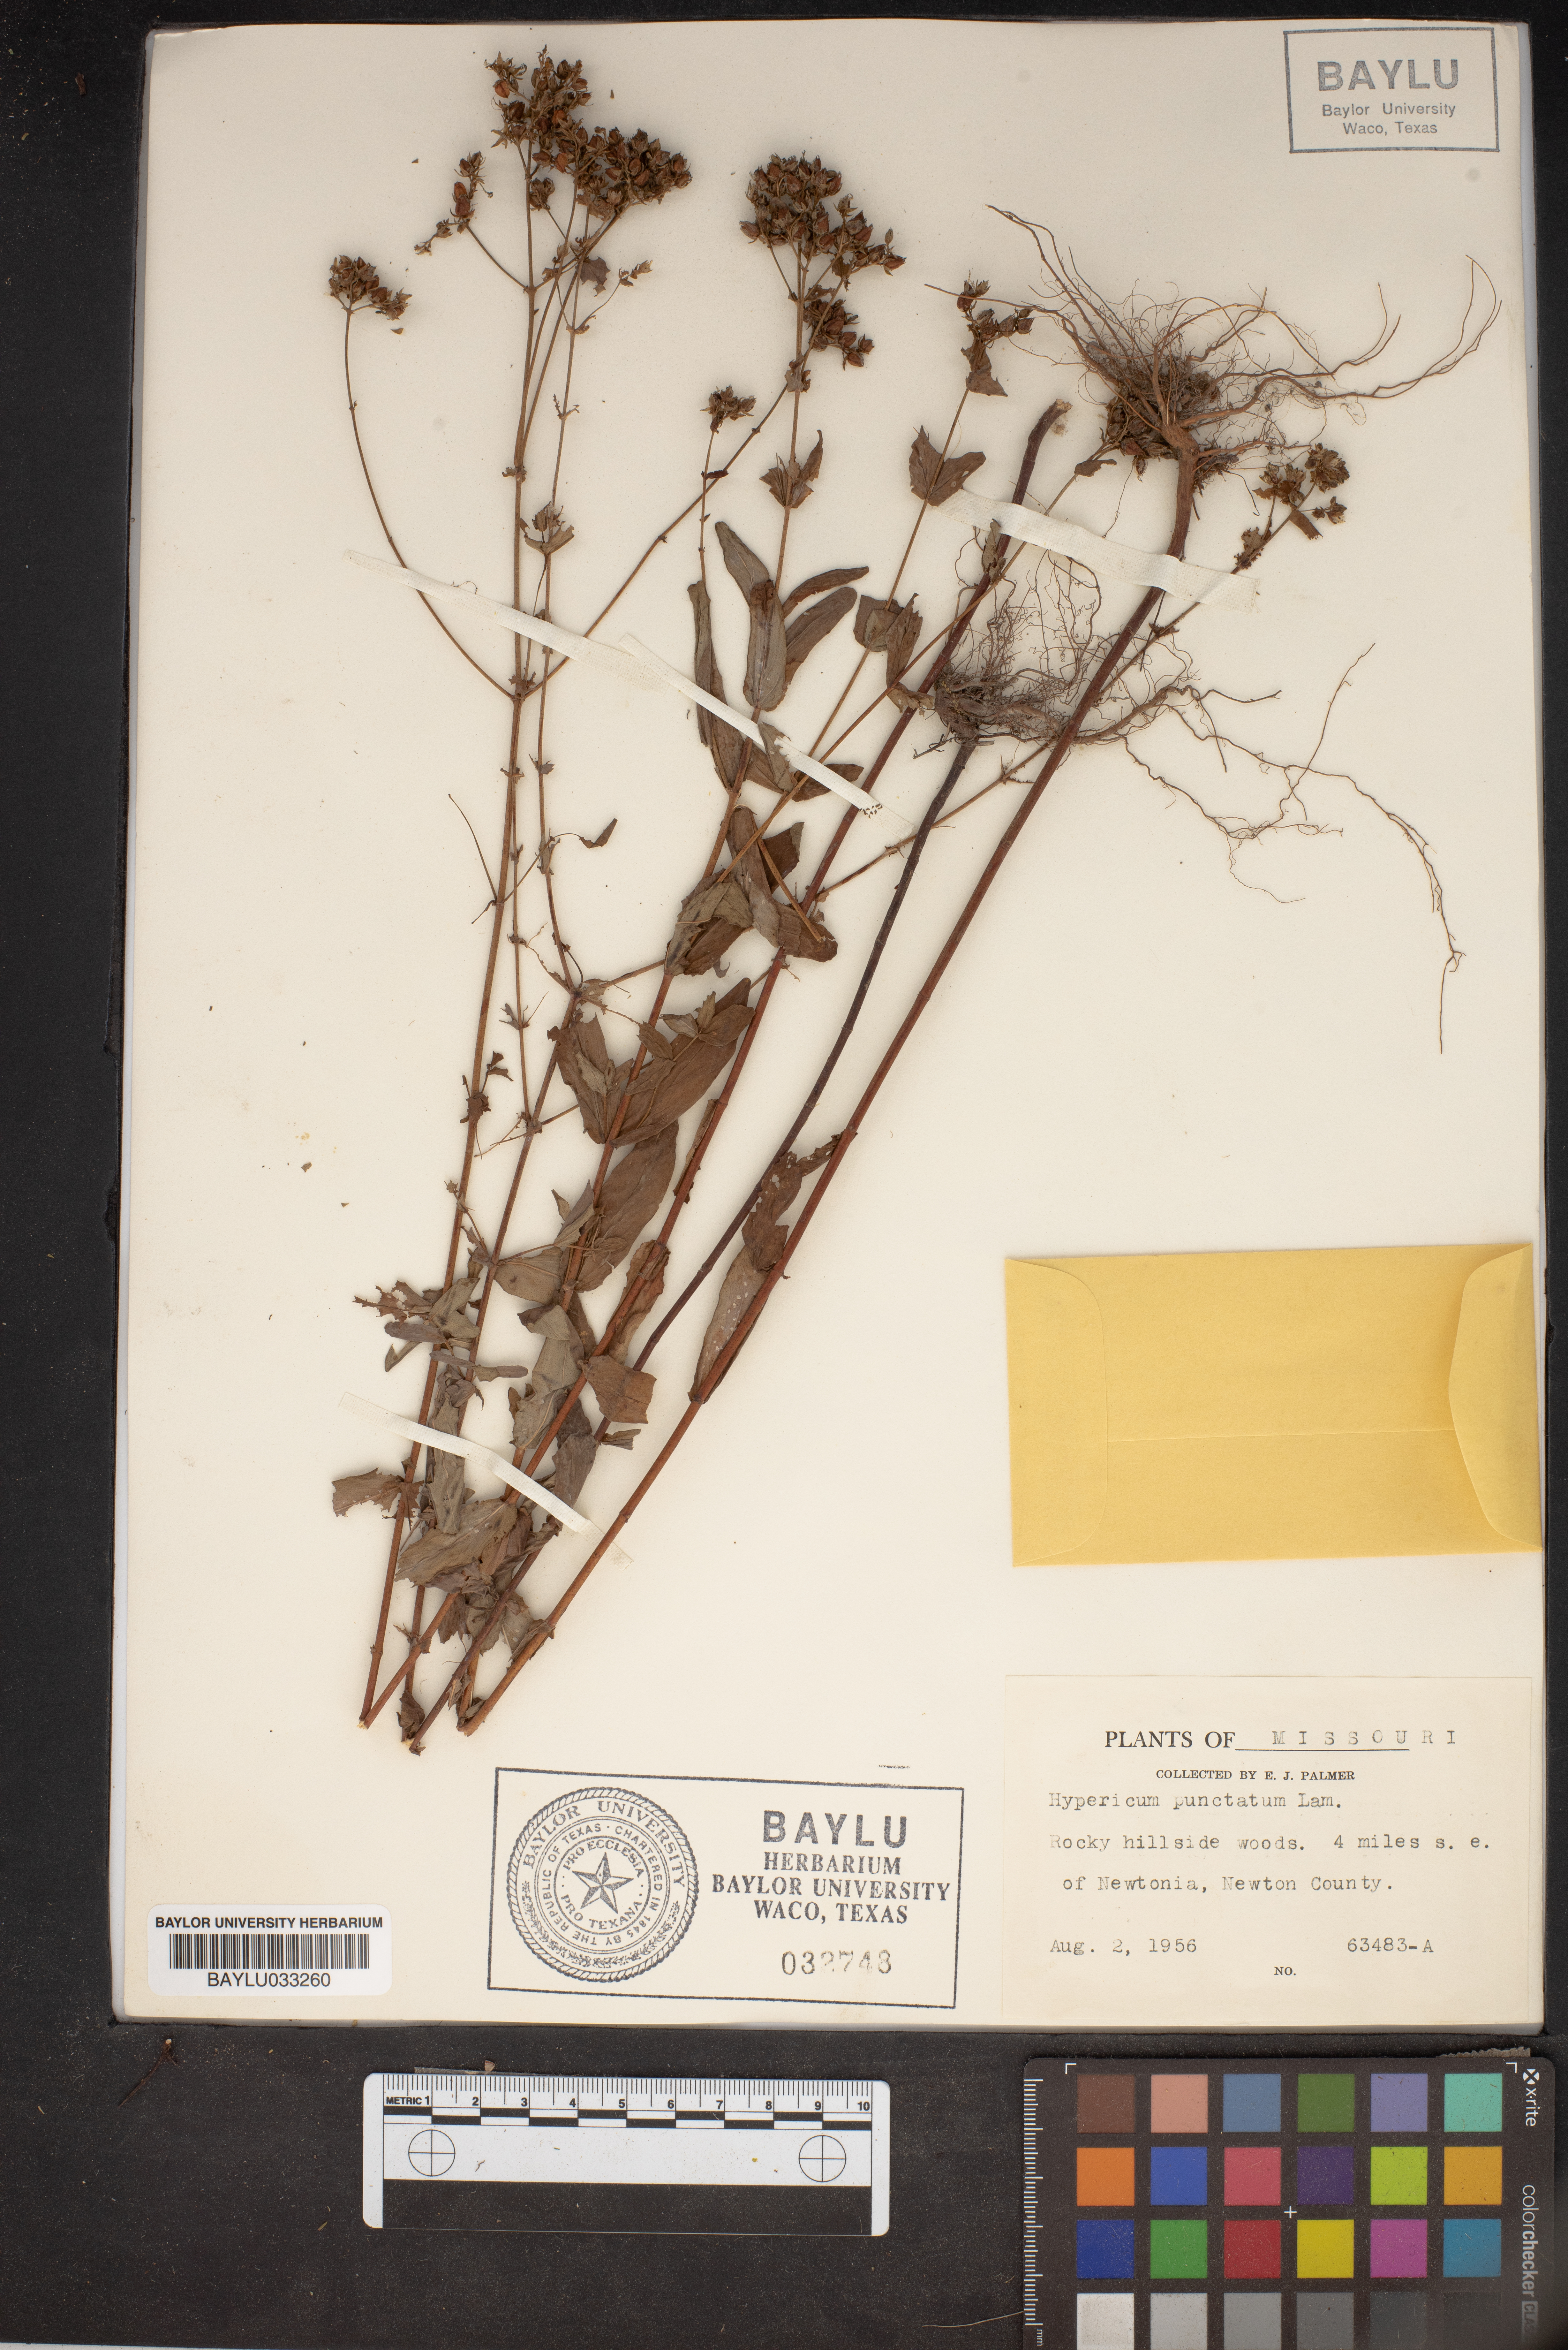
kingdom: Plantae
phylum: Tracheophyta
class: Magnoliopsida
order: Malpighiales
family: Hypericaceae
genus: Hypericum
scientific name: Hypericum punctatum
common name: Spotted st. john's-wort
